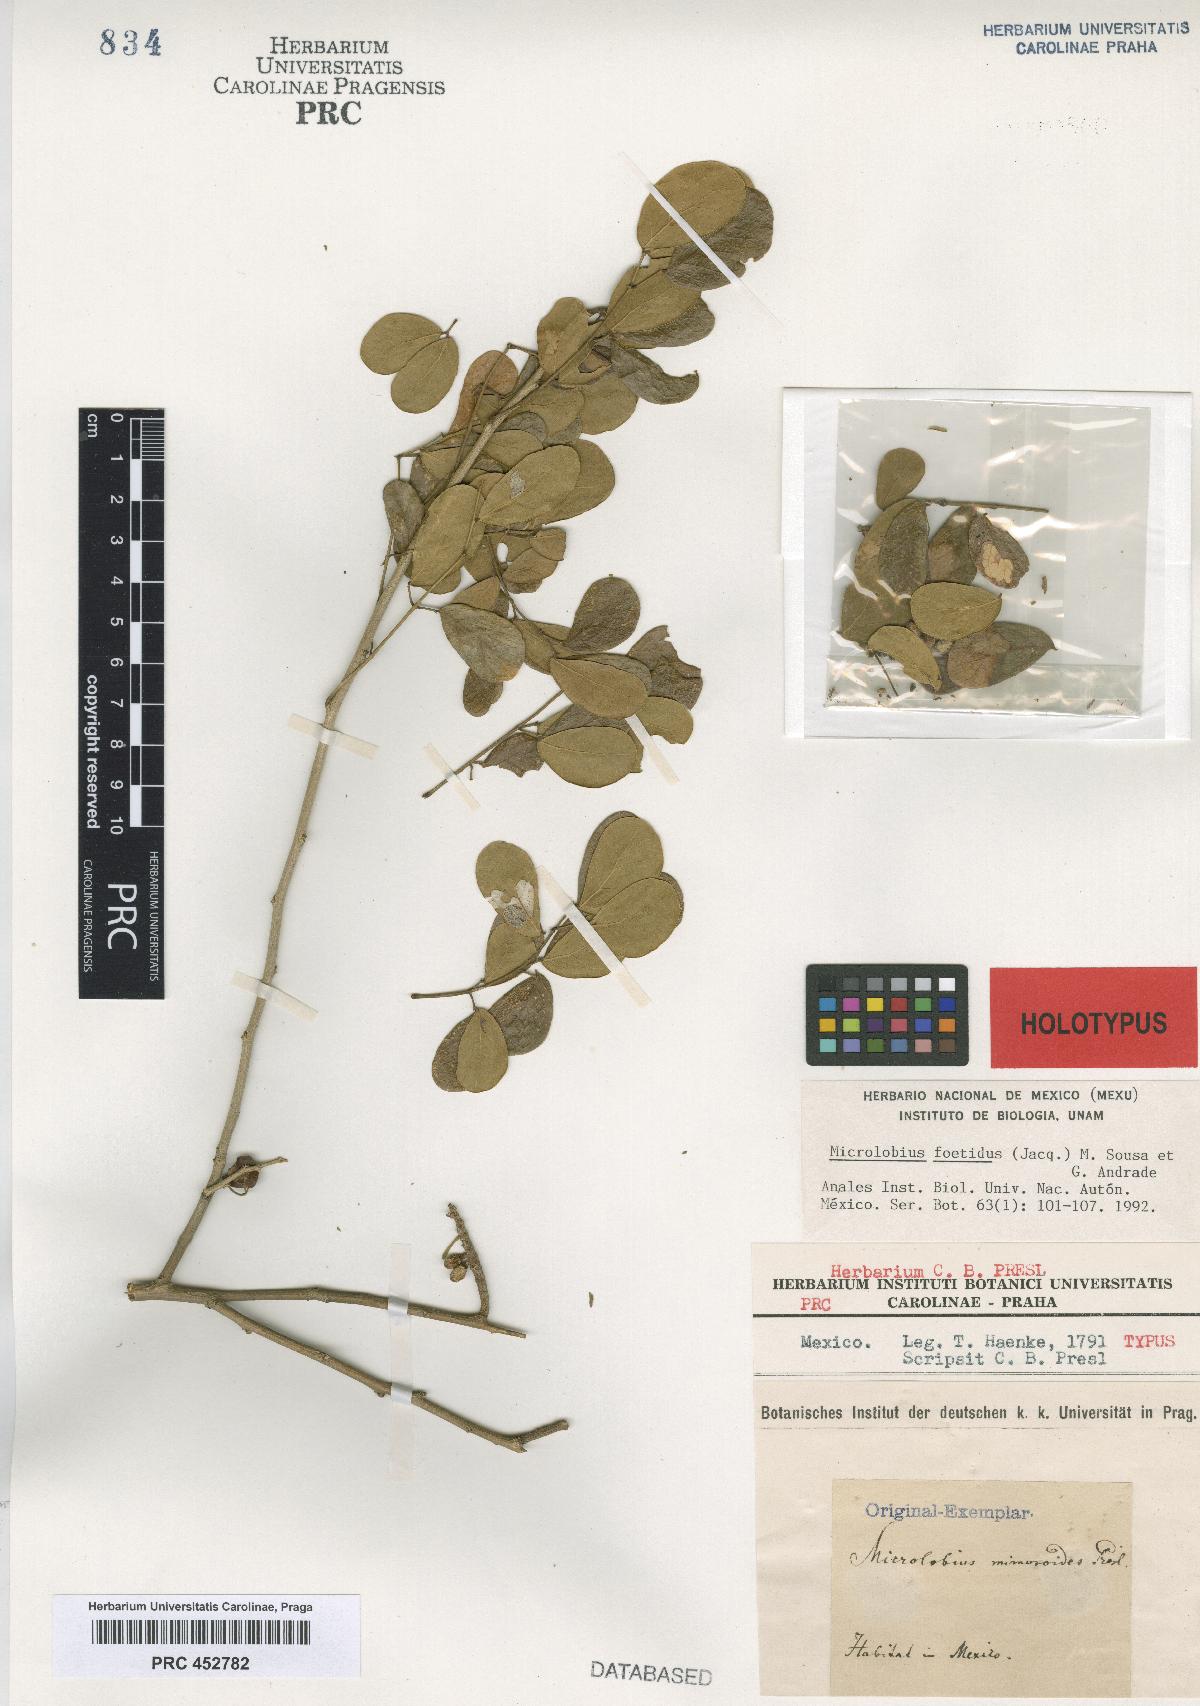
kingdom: Plantae
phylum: Tracheophyta
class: Magnoliopsida
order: Fabales
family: Fabaceae
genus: Microlobius
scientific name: Microlobius foetidus
